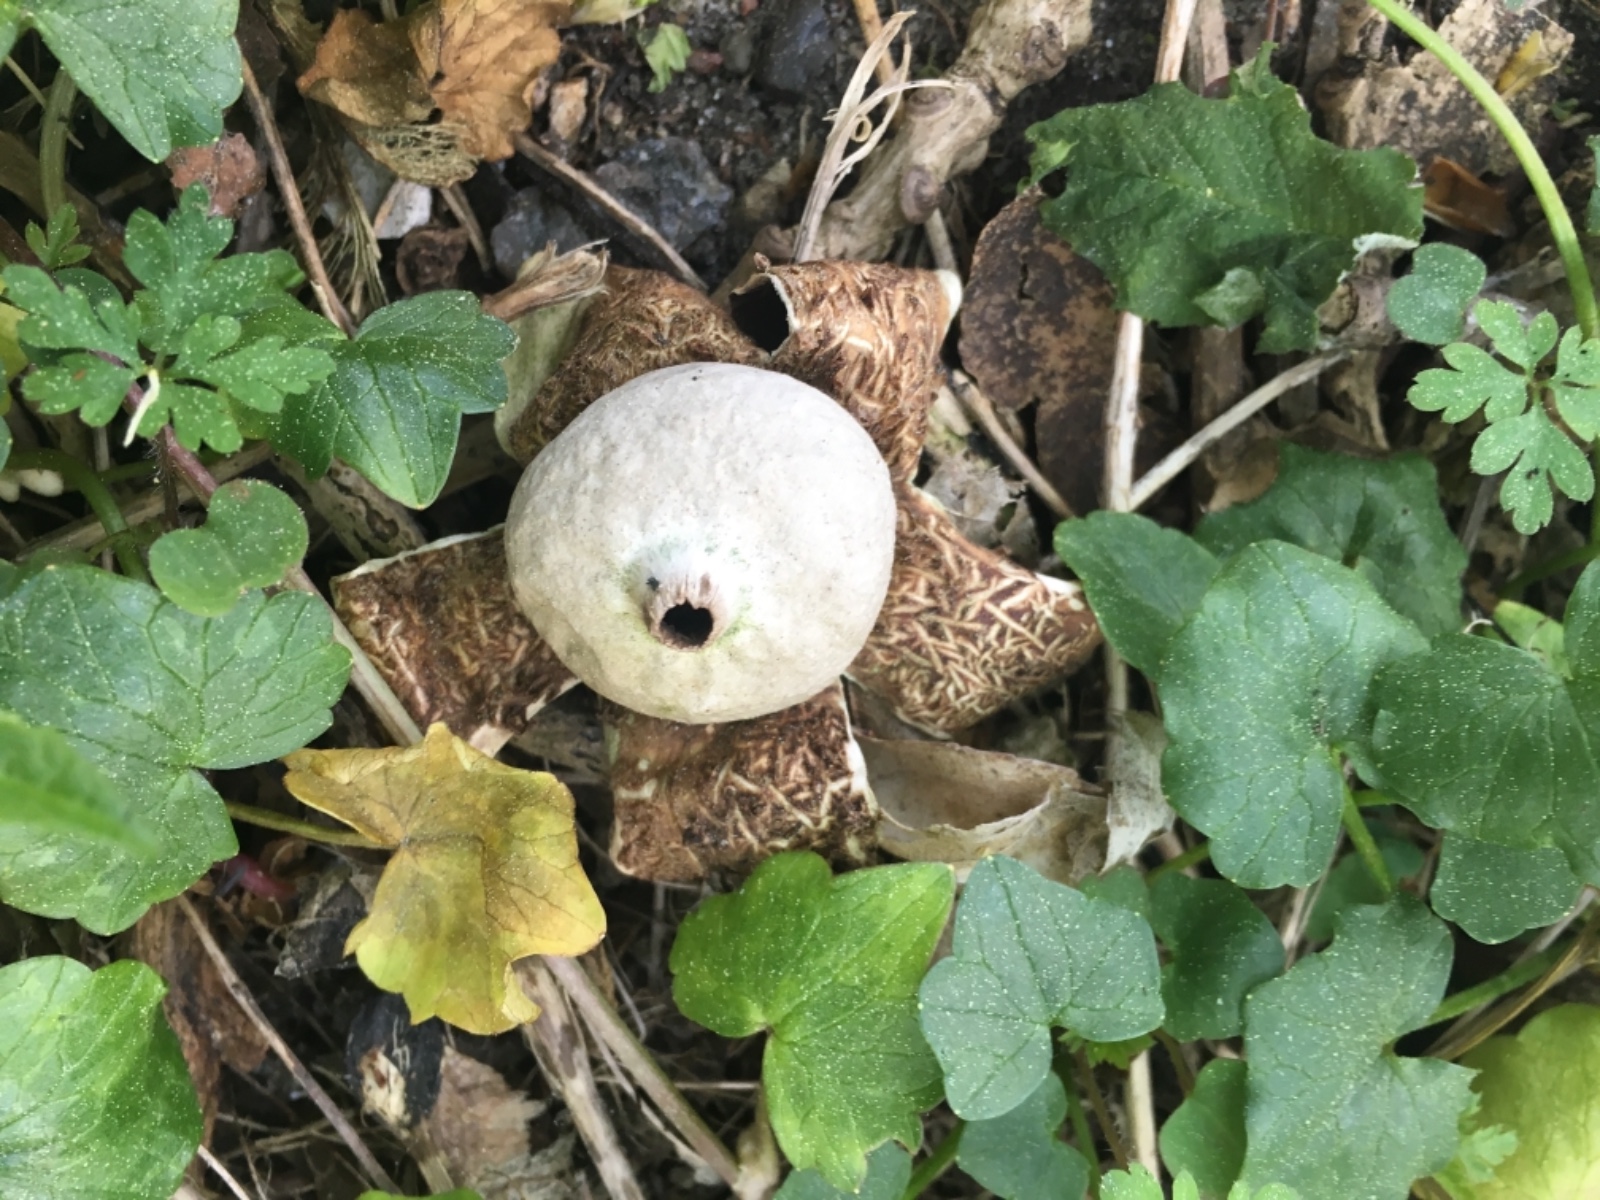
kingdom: Fungi
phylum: Basidiomycota
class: Agaricomycetes
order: Geastrales
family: Geastraceae
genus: Geastrum
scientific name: Geastrum michelianum
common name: kødet stjernebold
